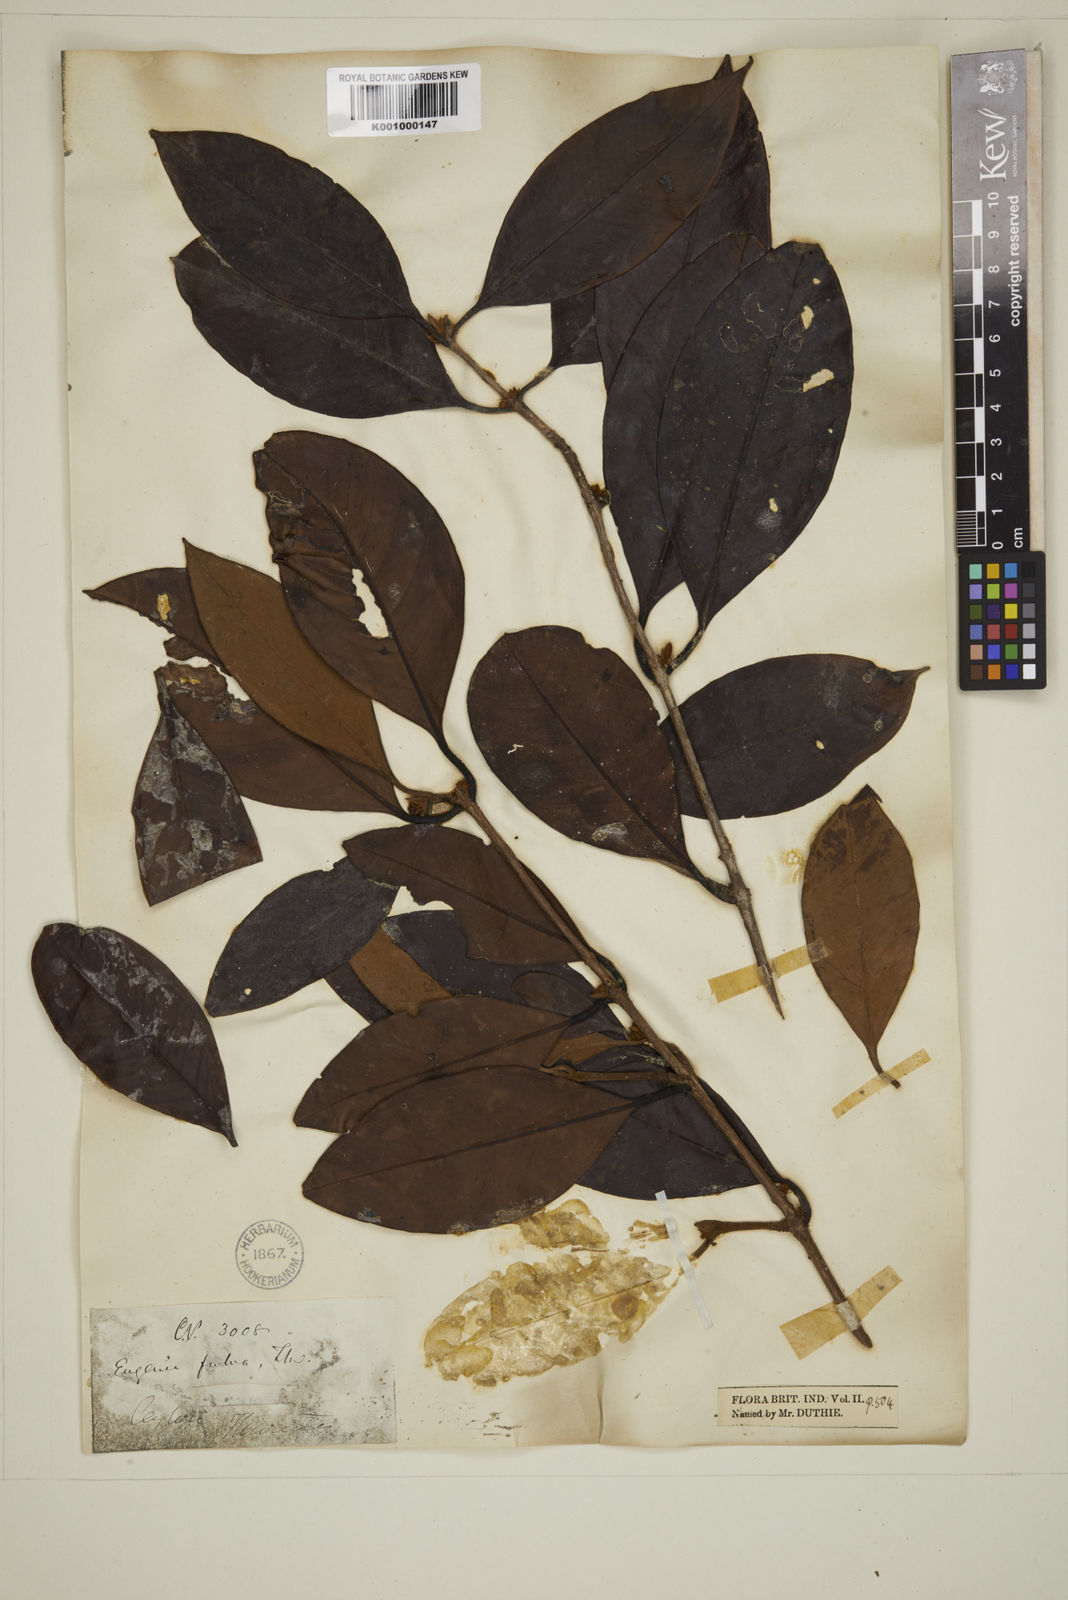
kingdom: Plantae
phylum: Tracheophyta
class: Magnoliopsida
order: Myrtales
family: Myrtaceae
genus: Eugenia
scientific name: Eugenia fulva
